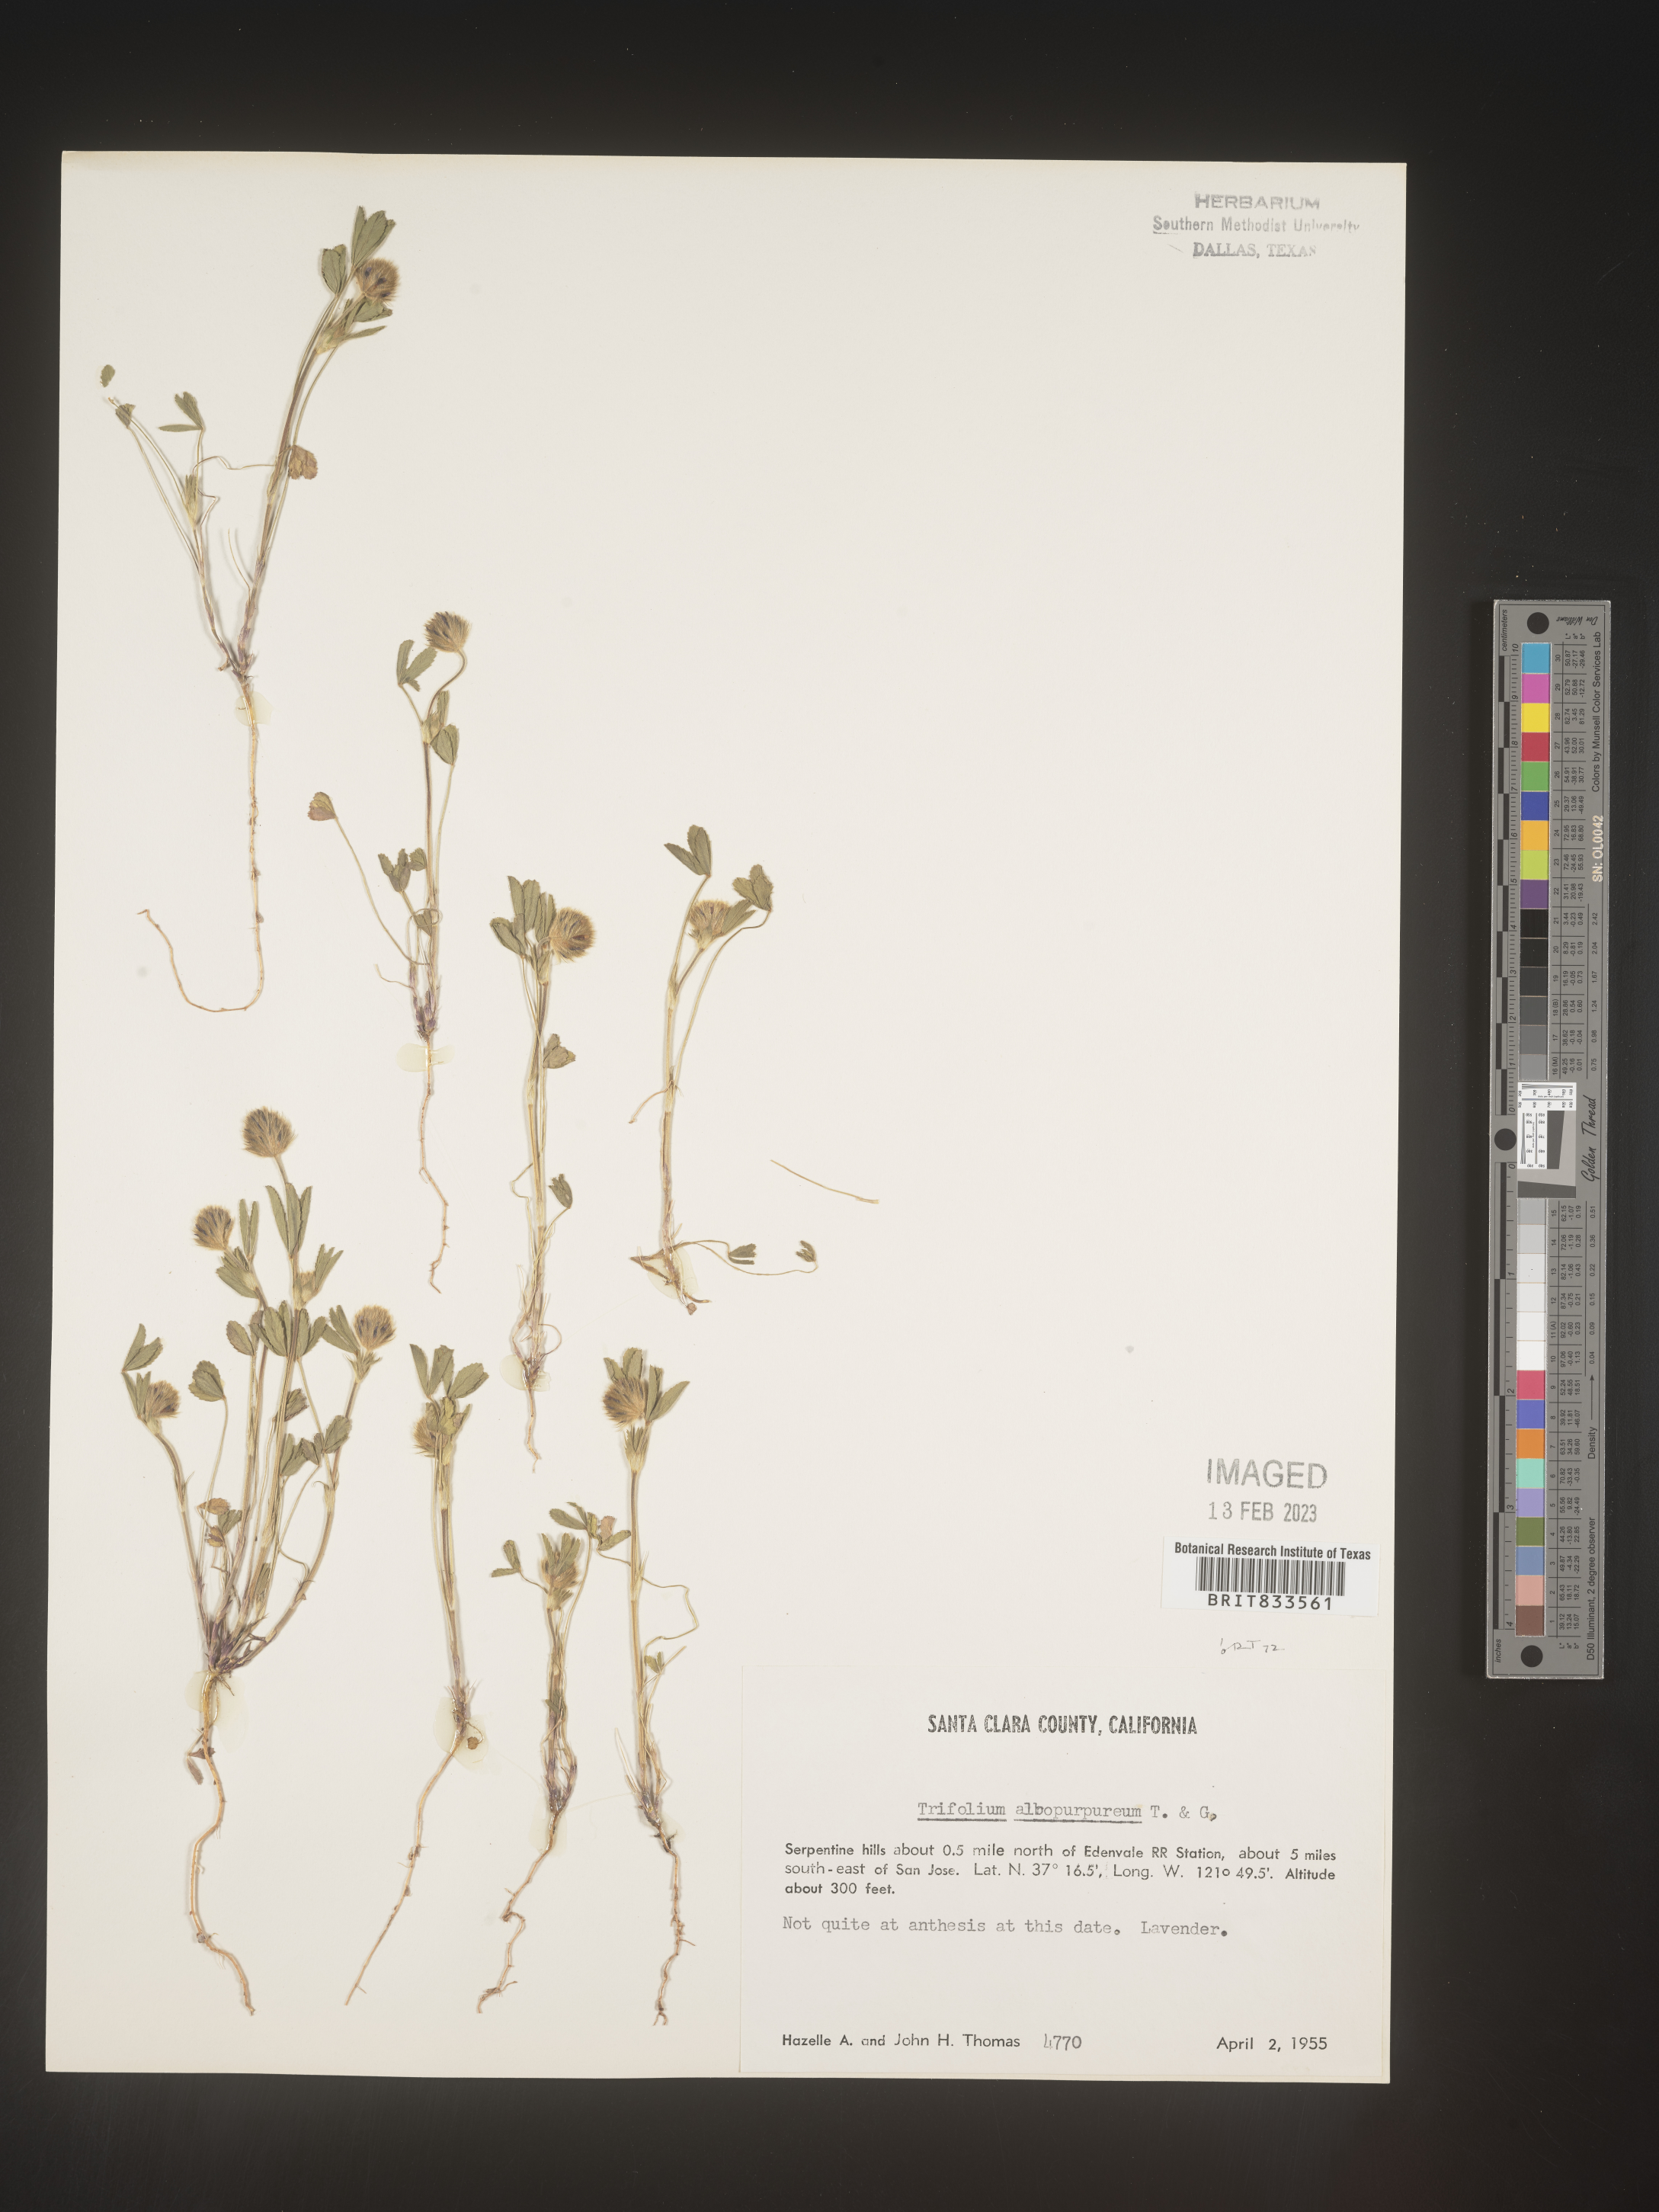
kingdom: Plantae
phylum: Tracheophyta
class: Magnoliopsida
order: Fabales
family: Fabaceae
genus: Trifolium
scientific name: Trifolium
